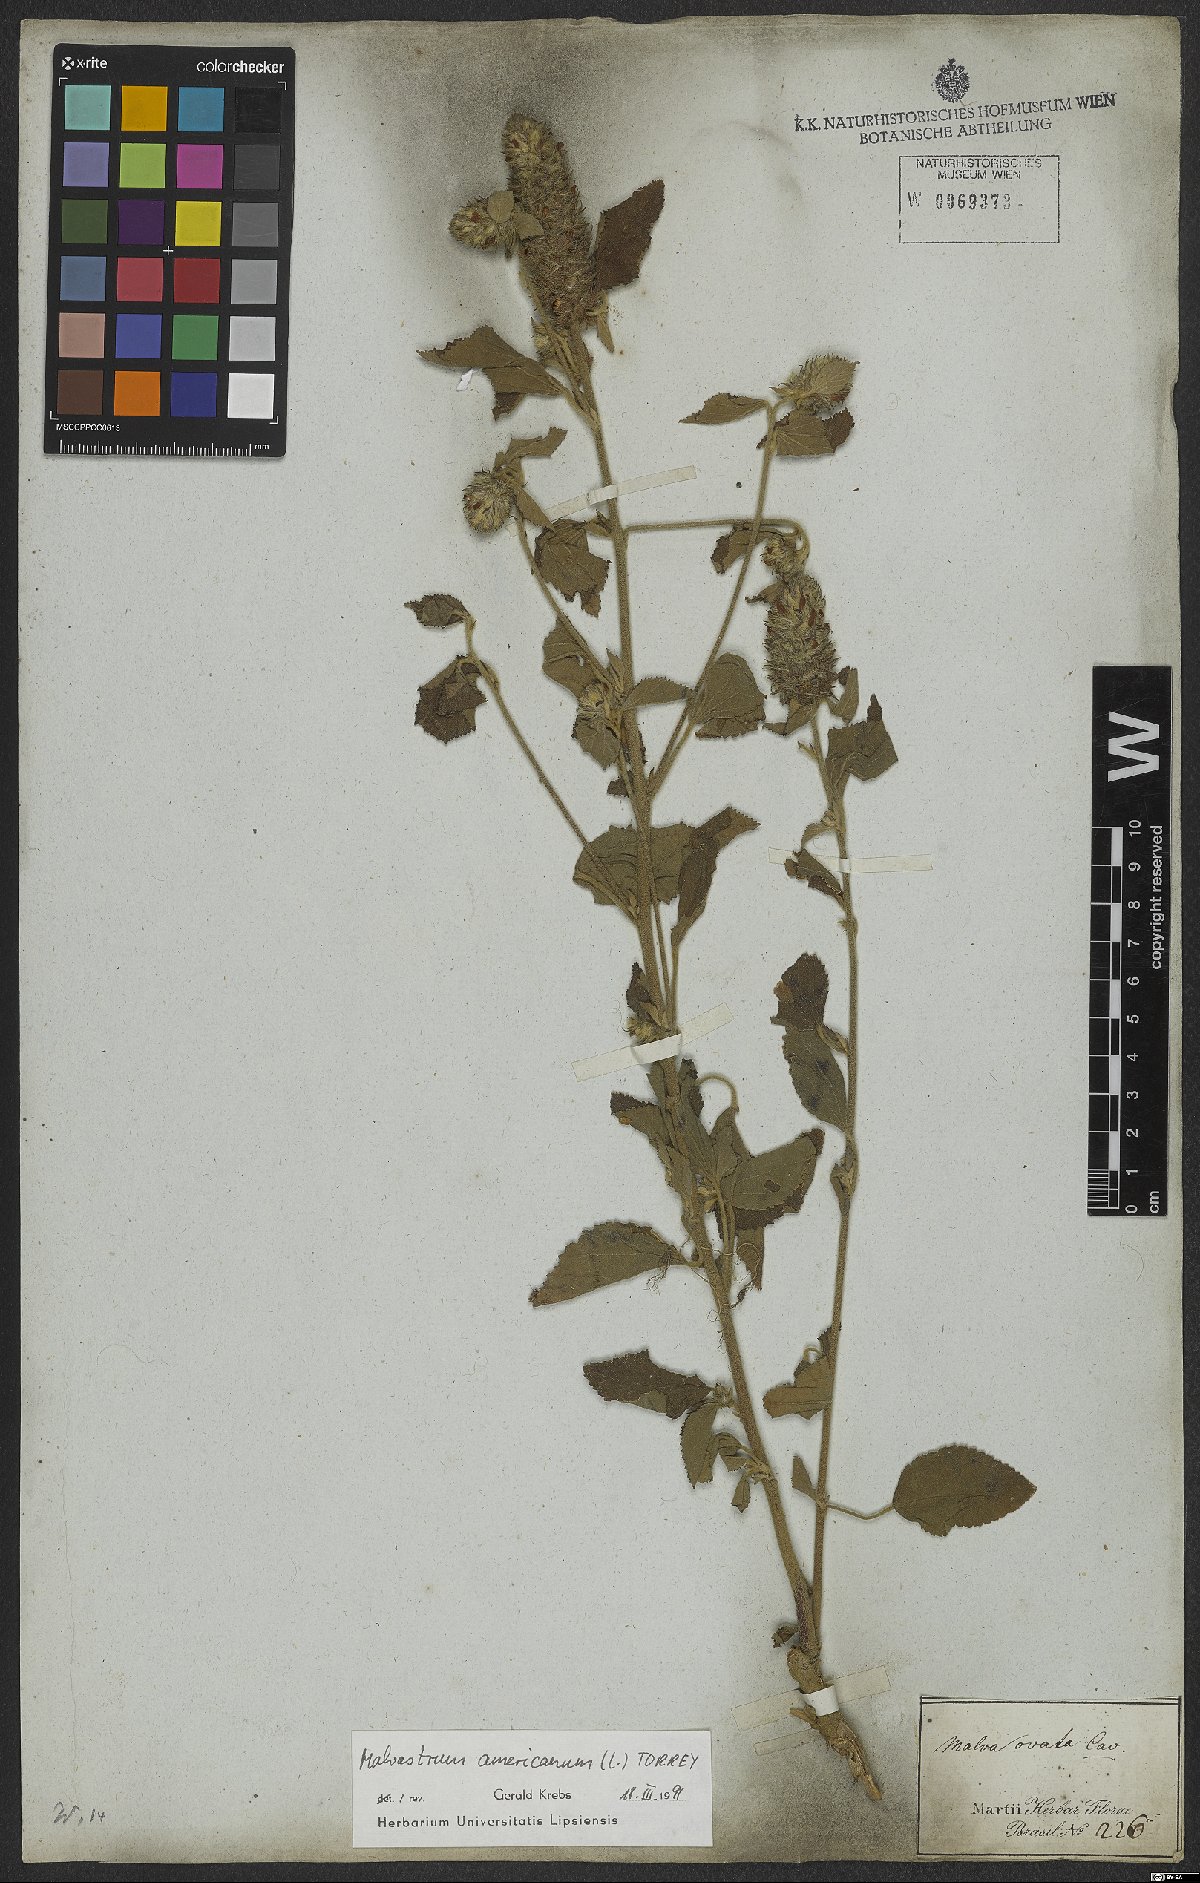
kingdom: Plantae
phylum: Tracheophyta
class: Magnoliopsida
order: Malvales
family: Malvaceae
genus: Malvastrum
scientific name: Malvastrum americanum
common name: Spiked malvastrum
